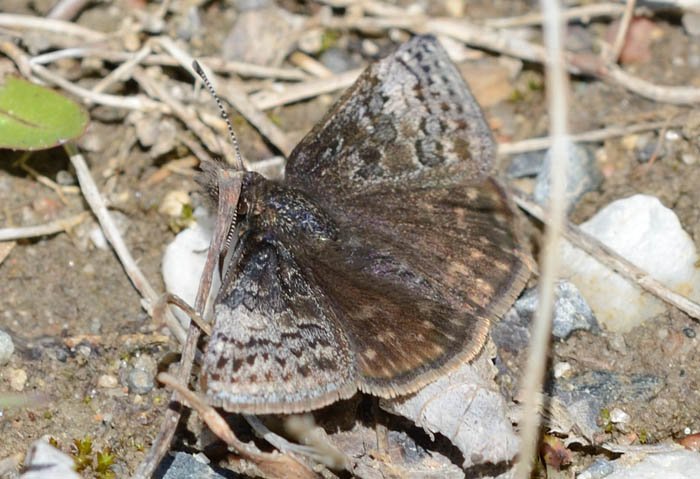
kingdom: Animalia
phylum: Arthropoda
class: Insecta
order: Lepidoptera
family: Hesperiidae
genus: Erynnis
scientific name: Erynnis icelus
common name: Dreamy Duskywing
